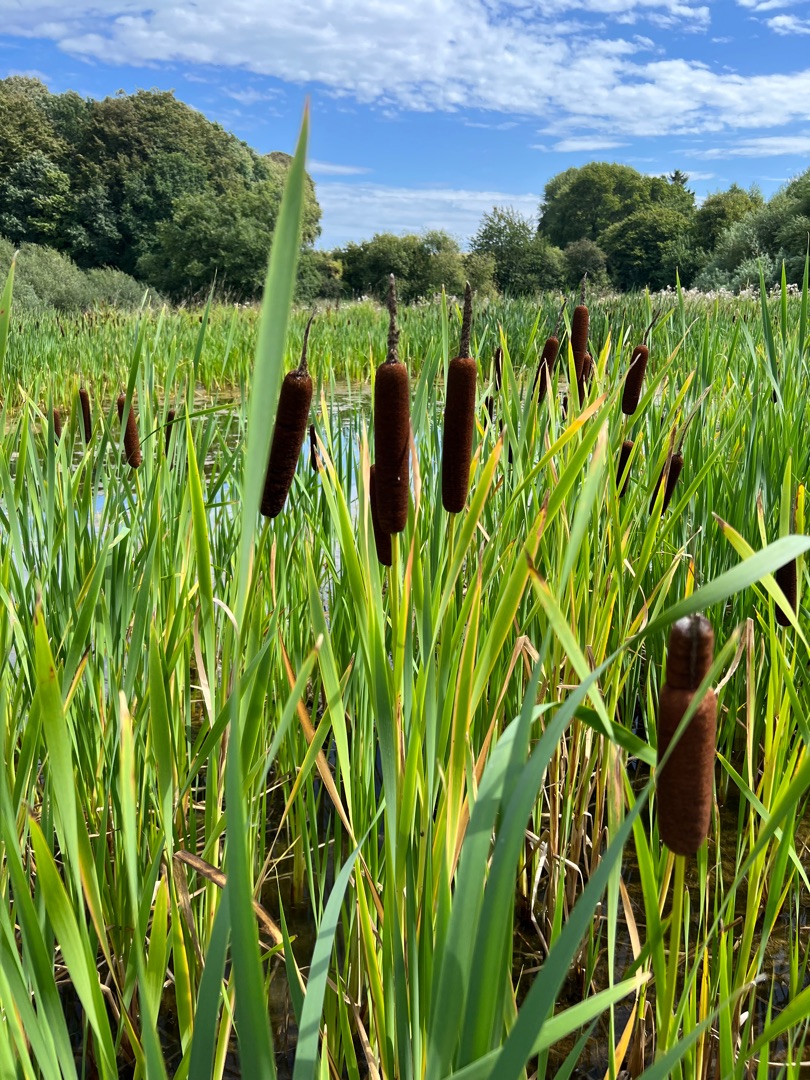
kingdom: Plantae
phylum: Tracheophyta
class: Liliopsida
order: Poales
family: Typhaceae
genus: Typha
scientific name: Typha latifolia
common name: Bredbladet dunhammer
